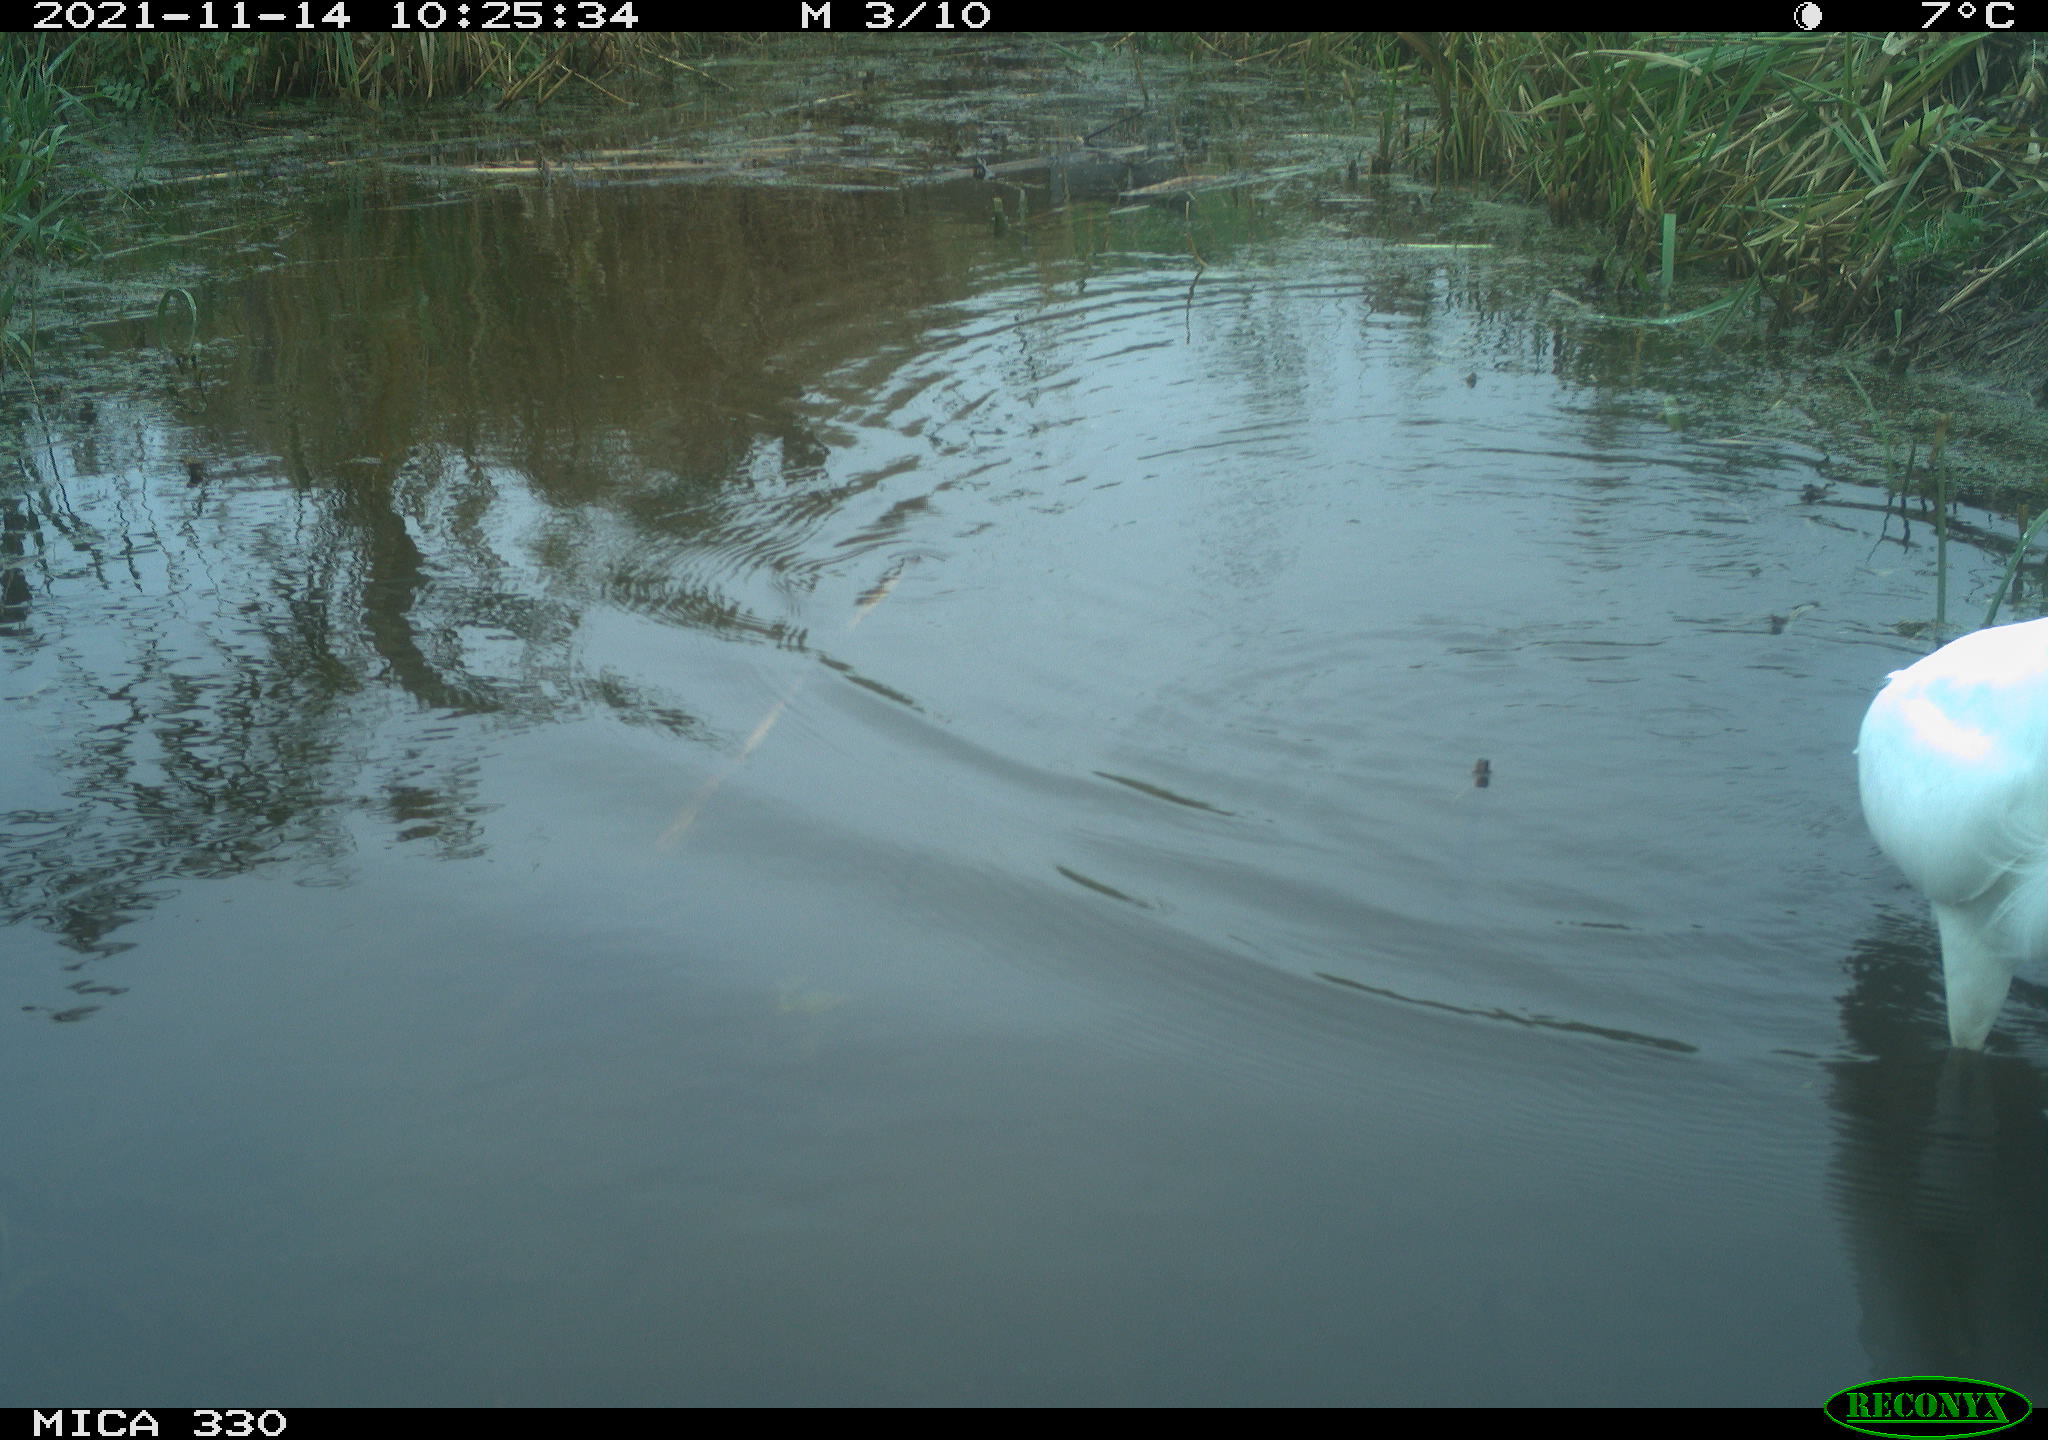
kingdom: Animalia
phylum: Chordata
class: Aves
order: Pelecaniformes
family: Ardeidae
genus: Ardea
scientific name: Ardea alba
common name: Great egret
